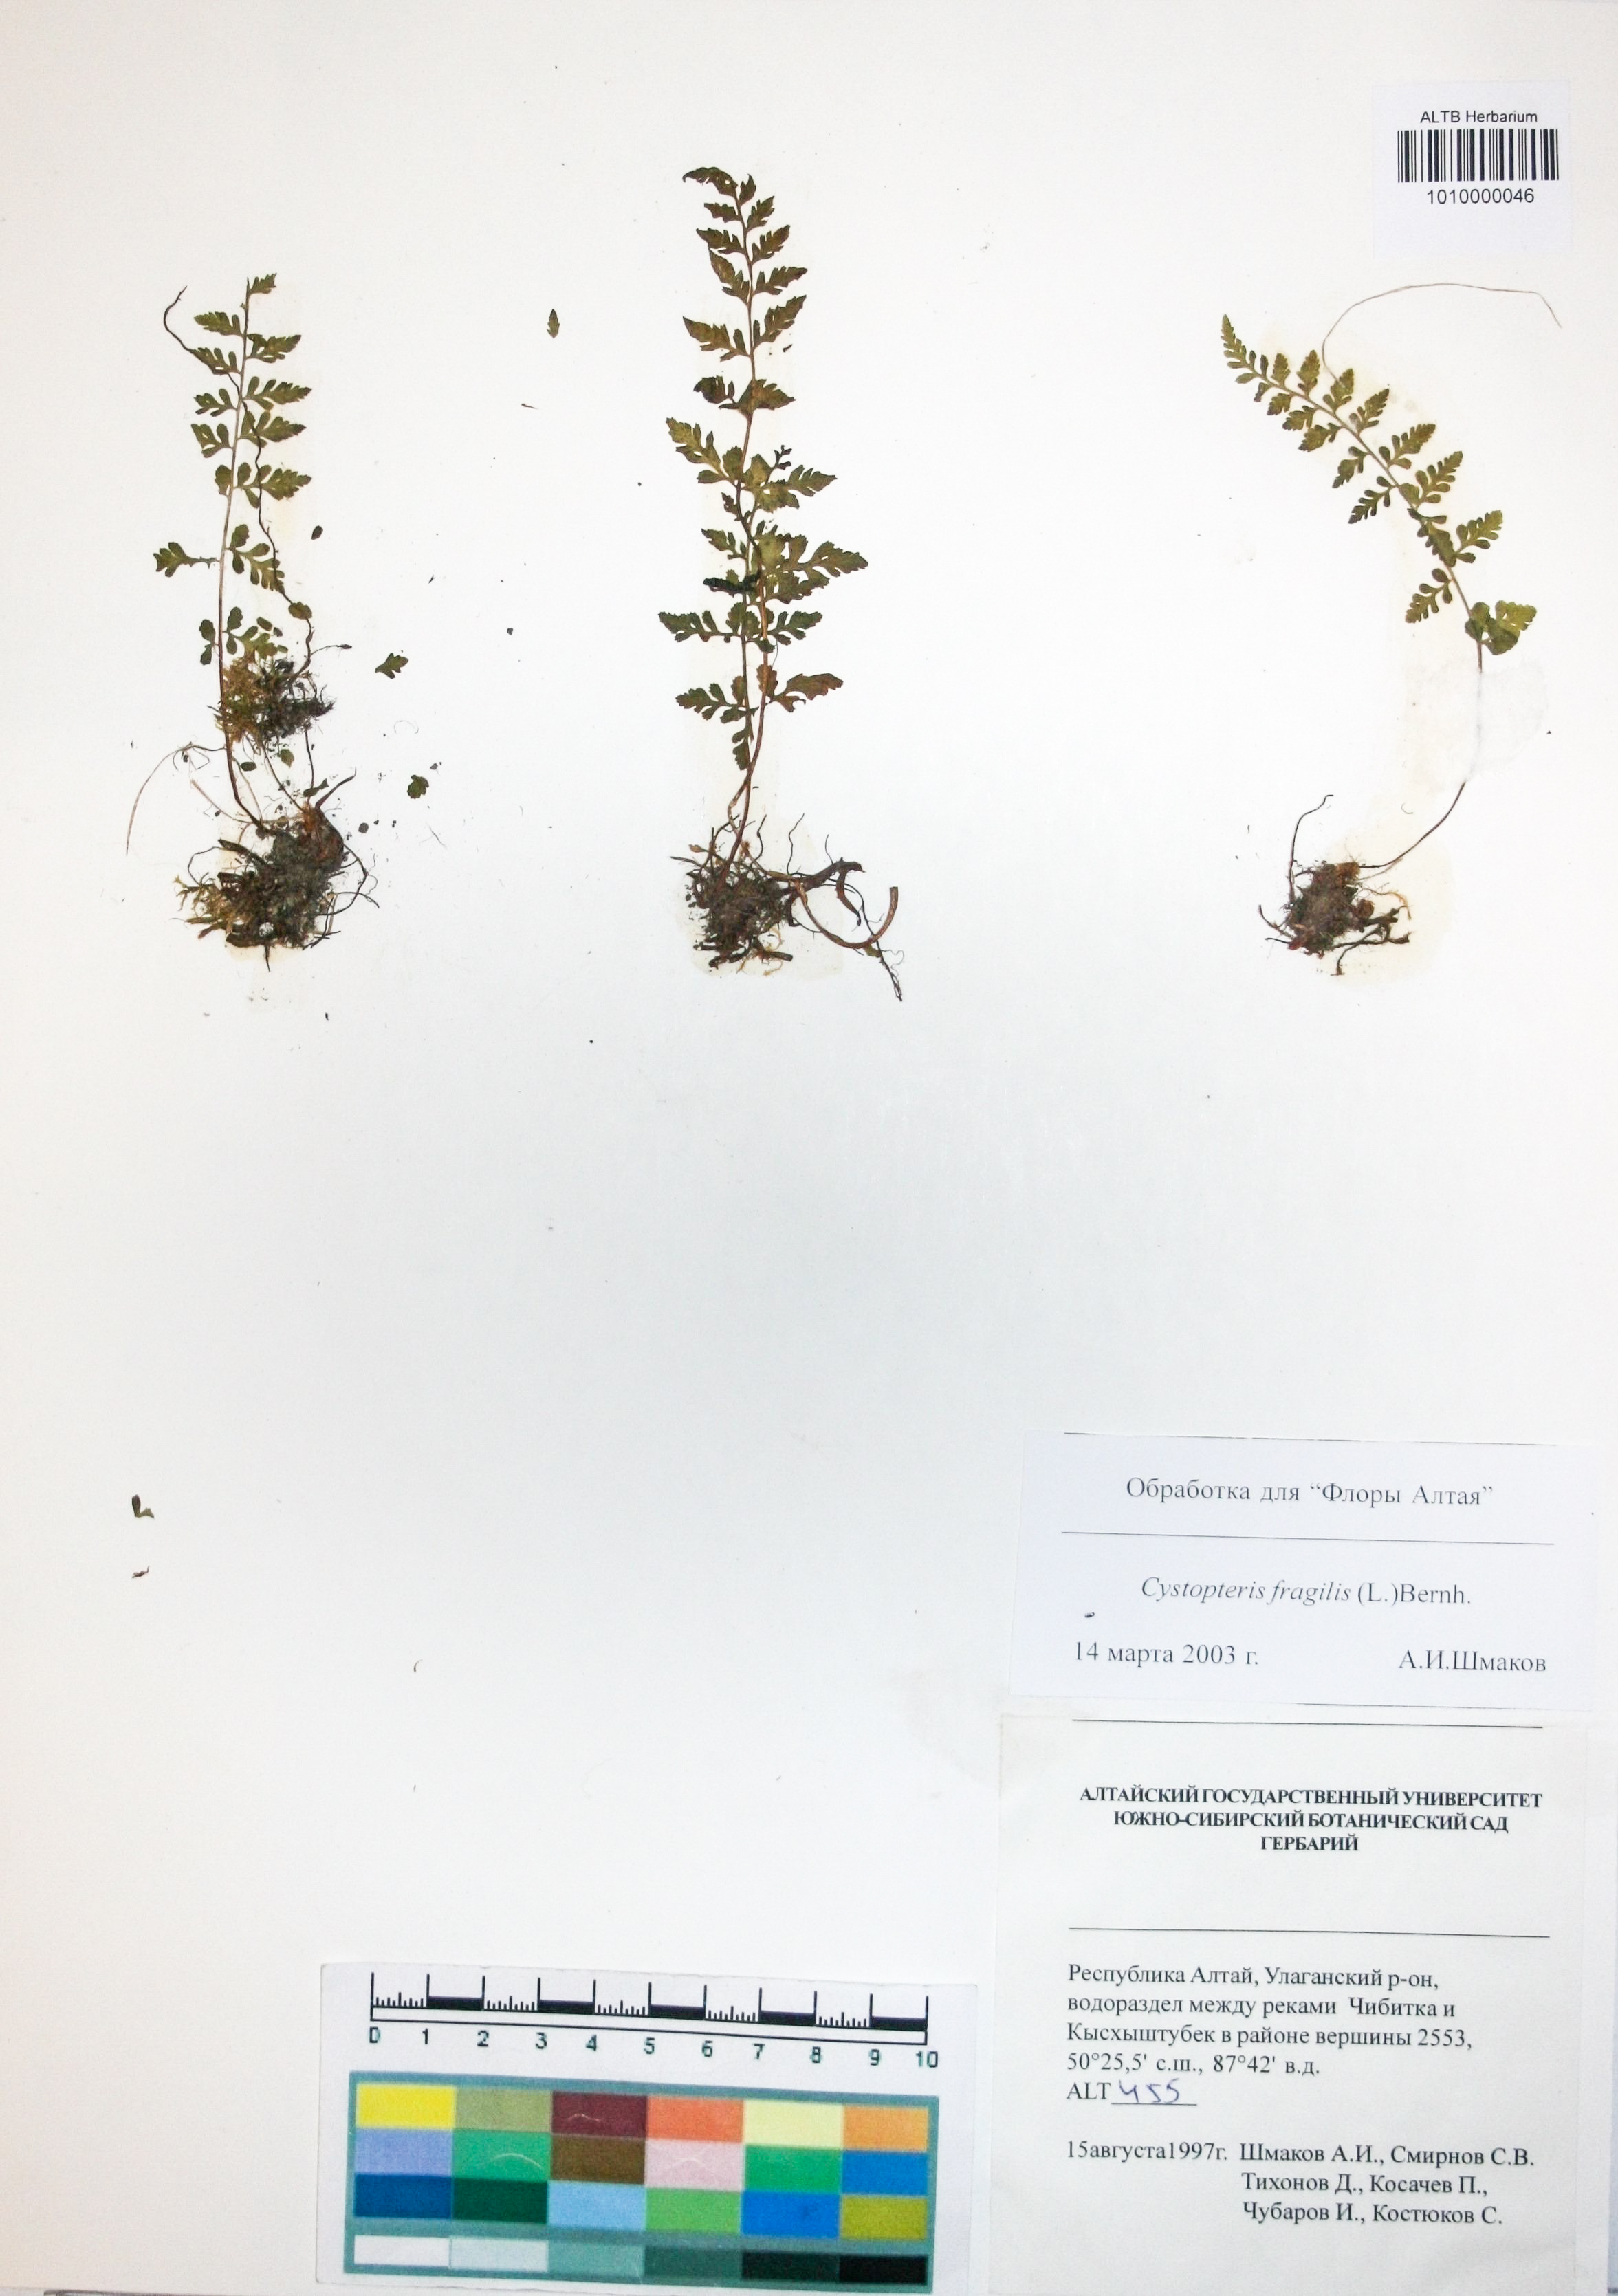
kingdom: Plantae
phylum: Tracheophyta
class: Polypodiopsida
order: Polypodiales
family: Cystopteridaceae
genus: Cystopteris
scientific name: Cystopteris fragilis
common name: Brittle bladder fern
